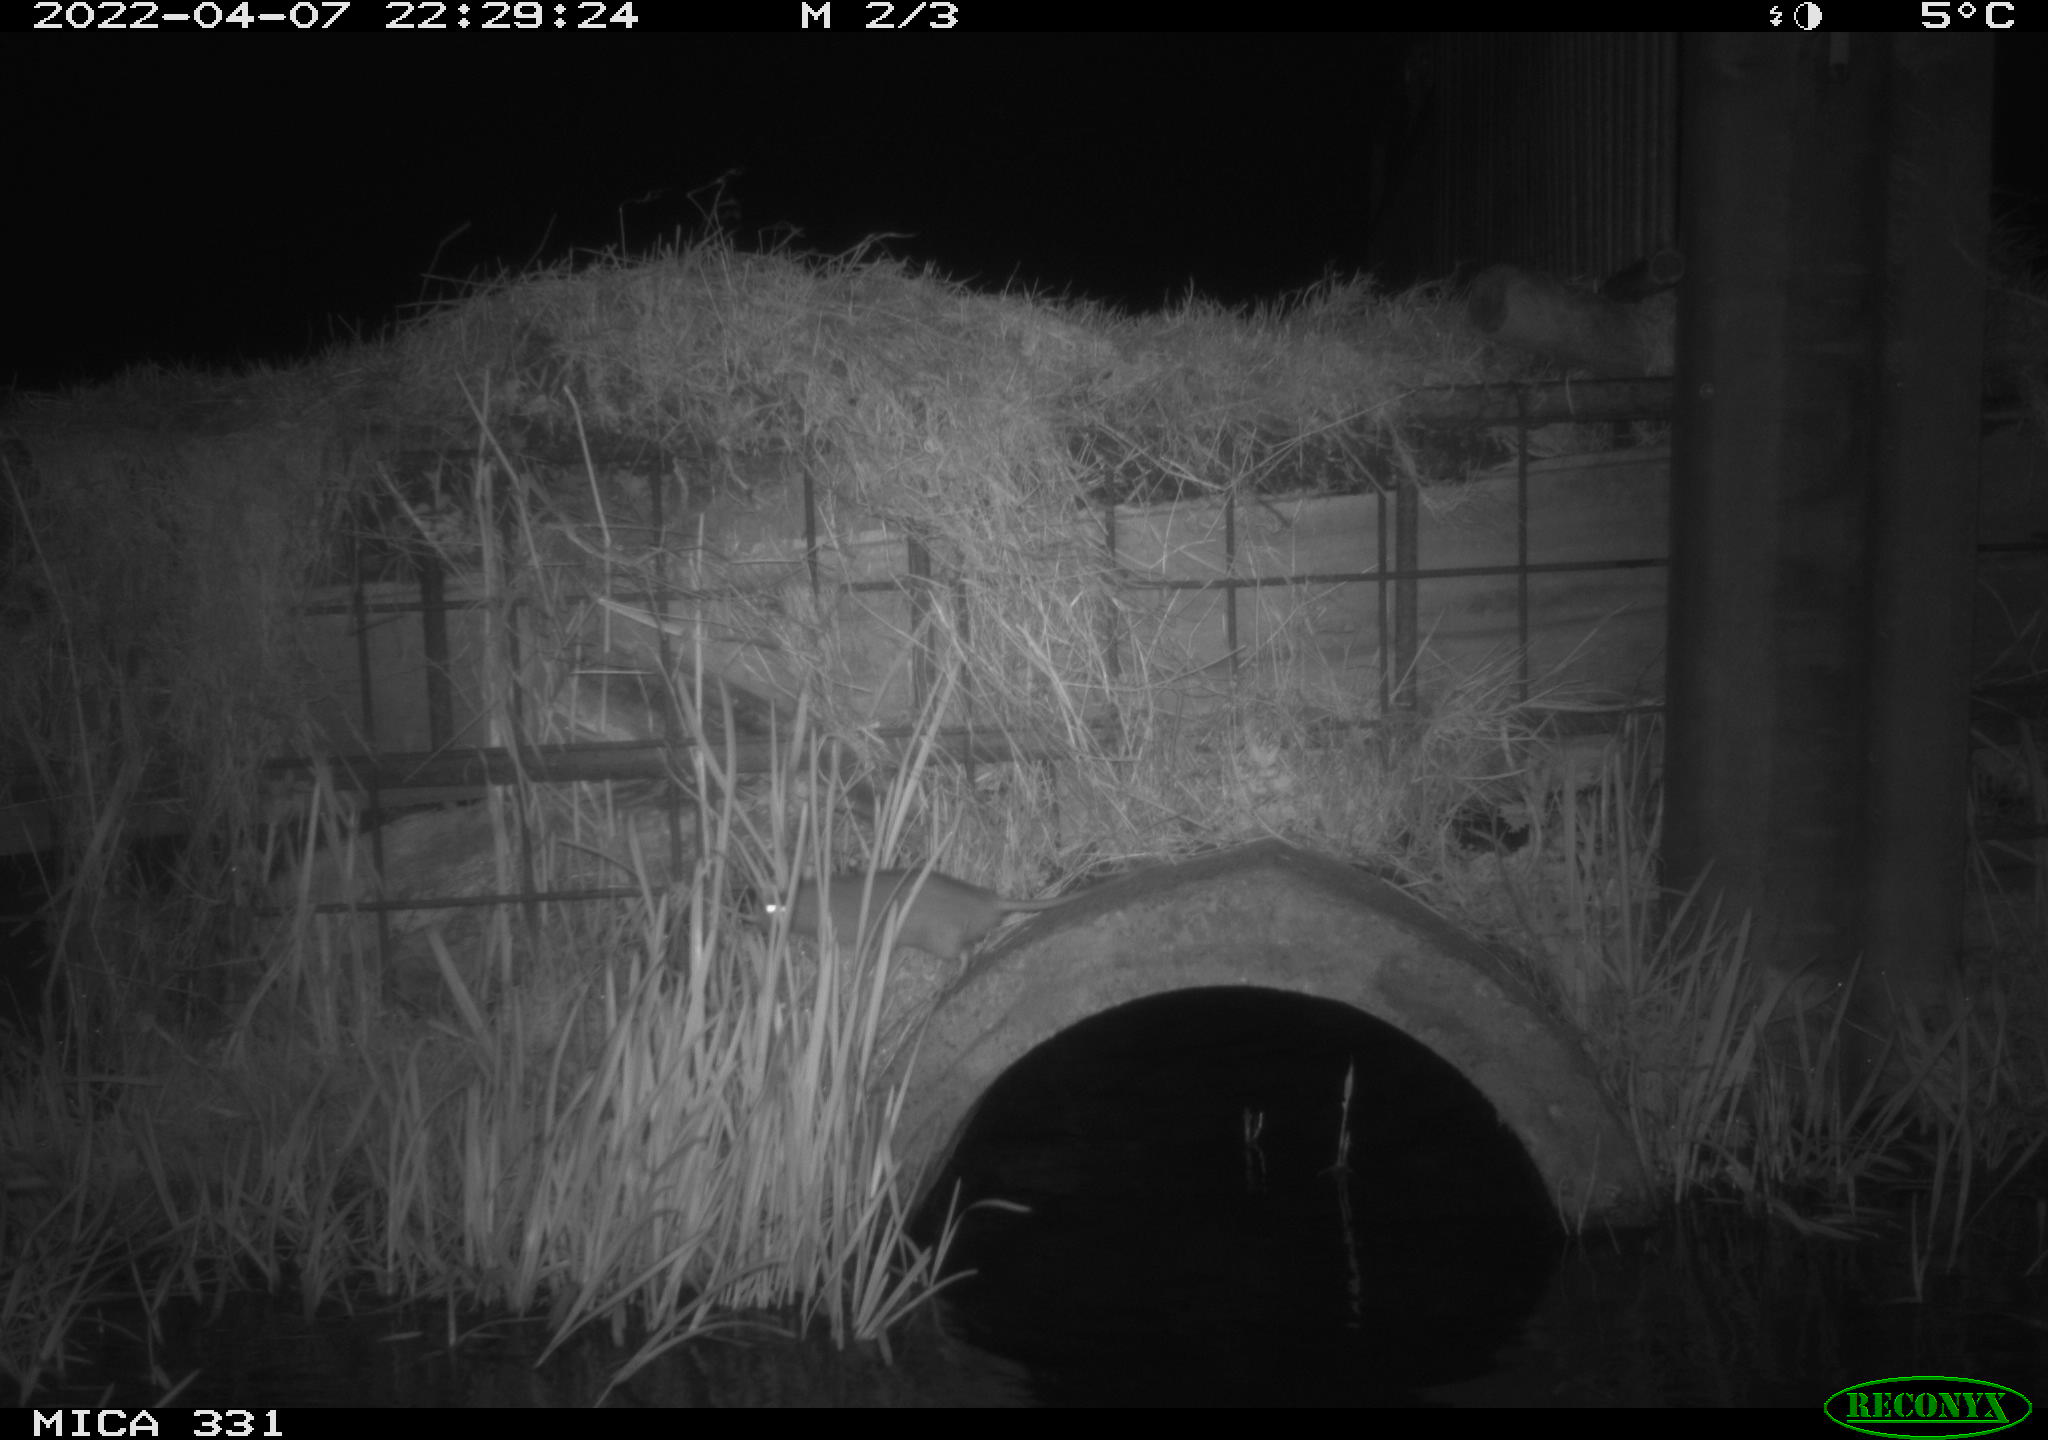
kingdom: Animalia
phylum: Chordata
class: Mammalia
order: Rodentia
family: Muridae
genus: Rattus
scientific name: Rattus norvegicus
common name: Brown rat
